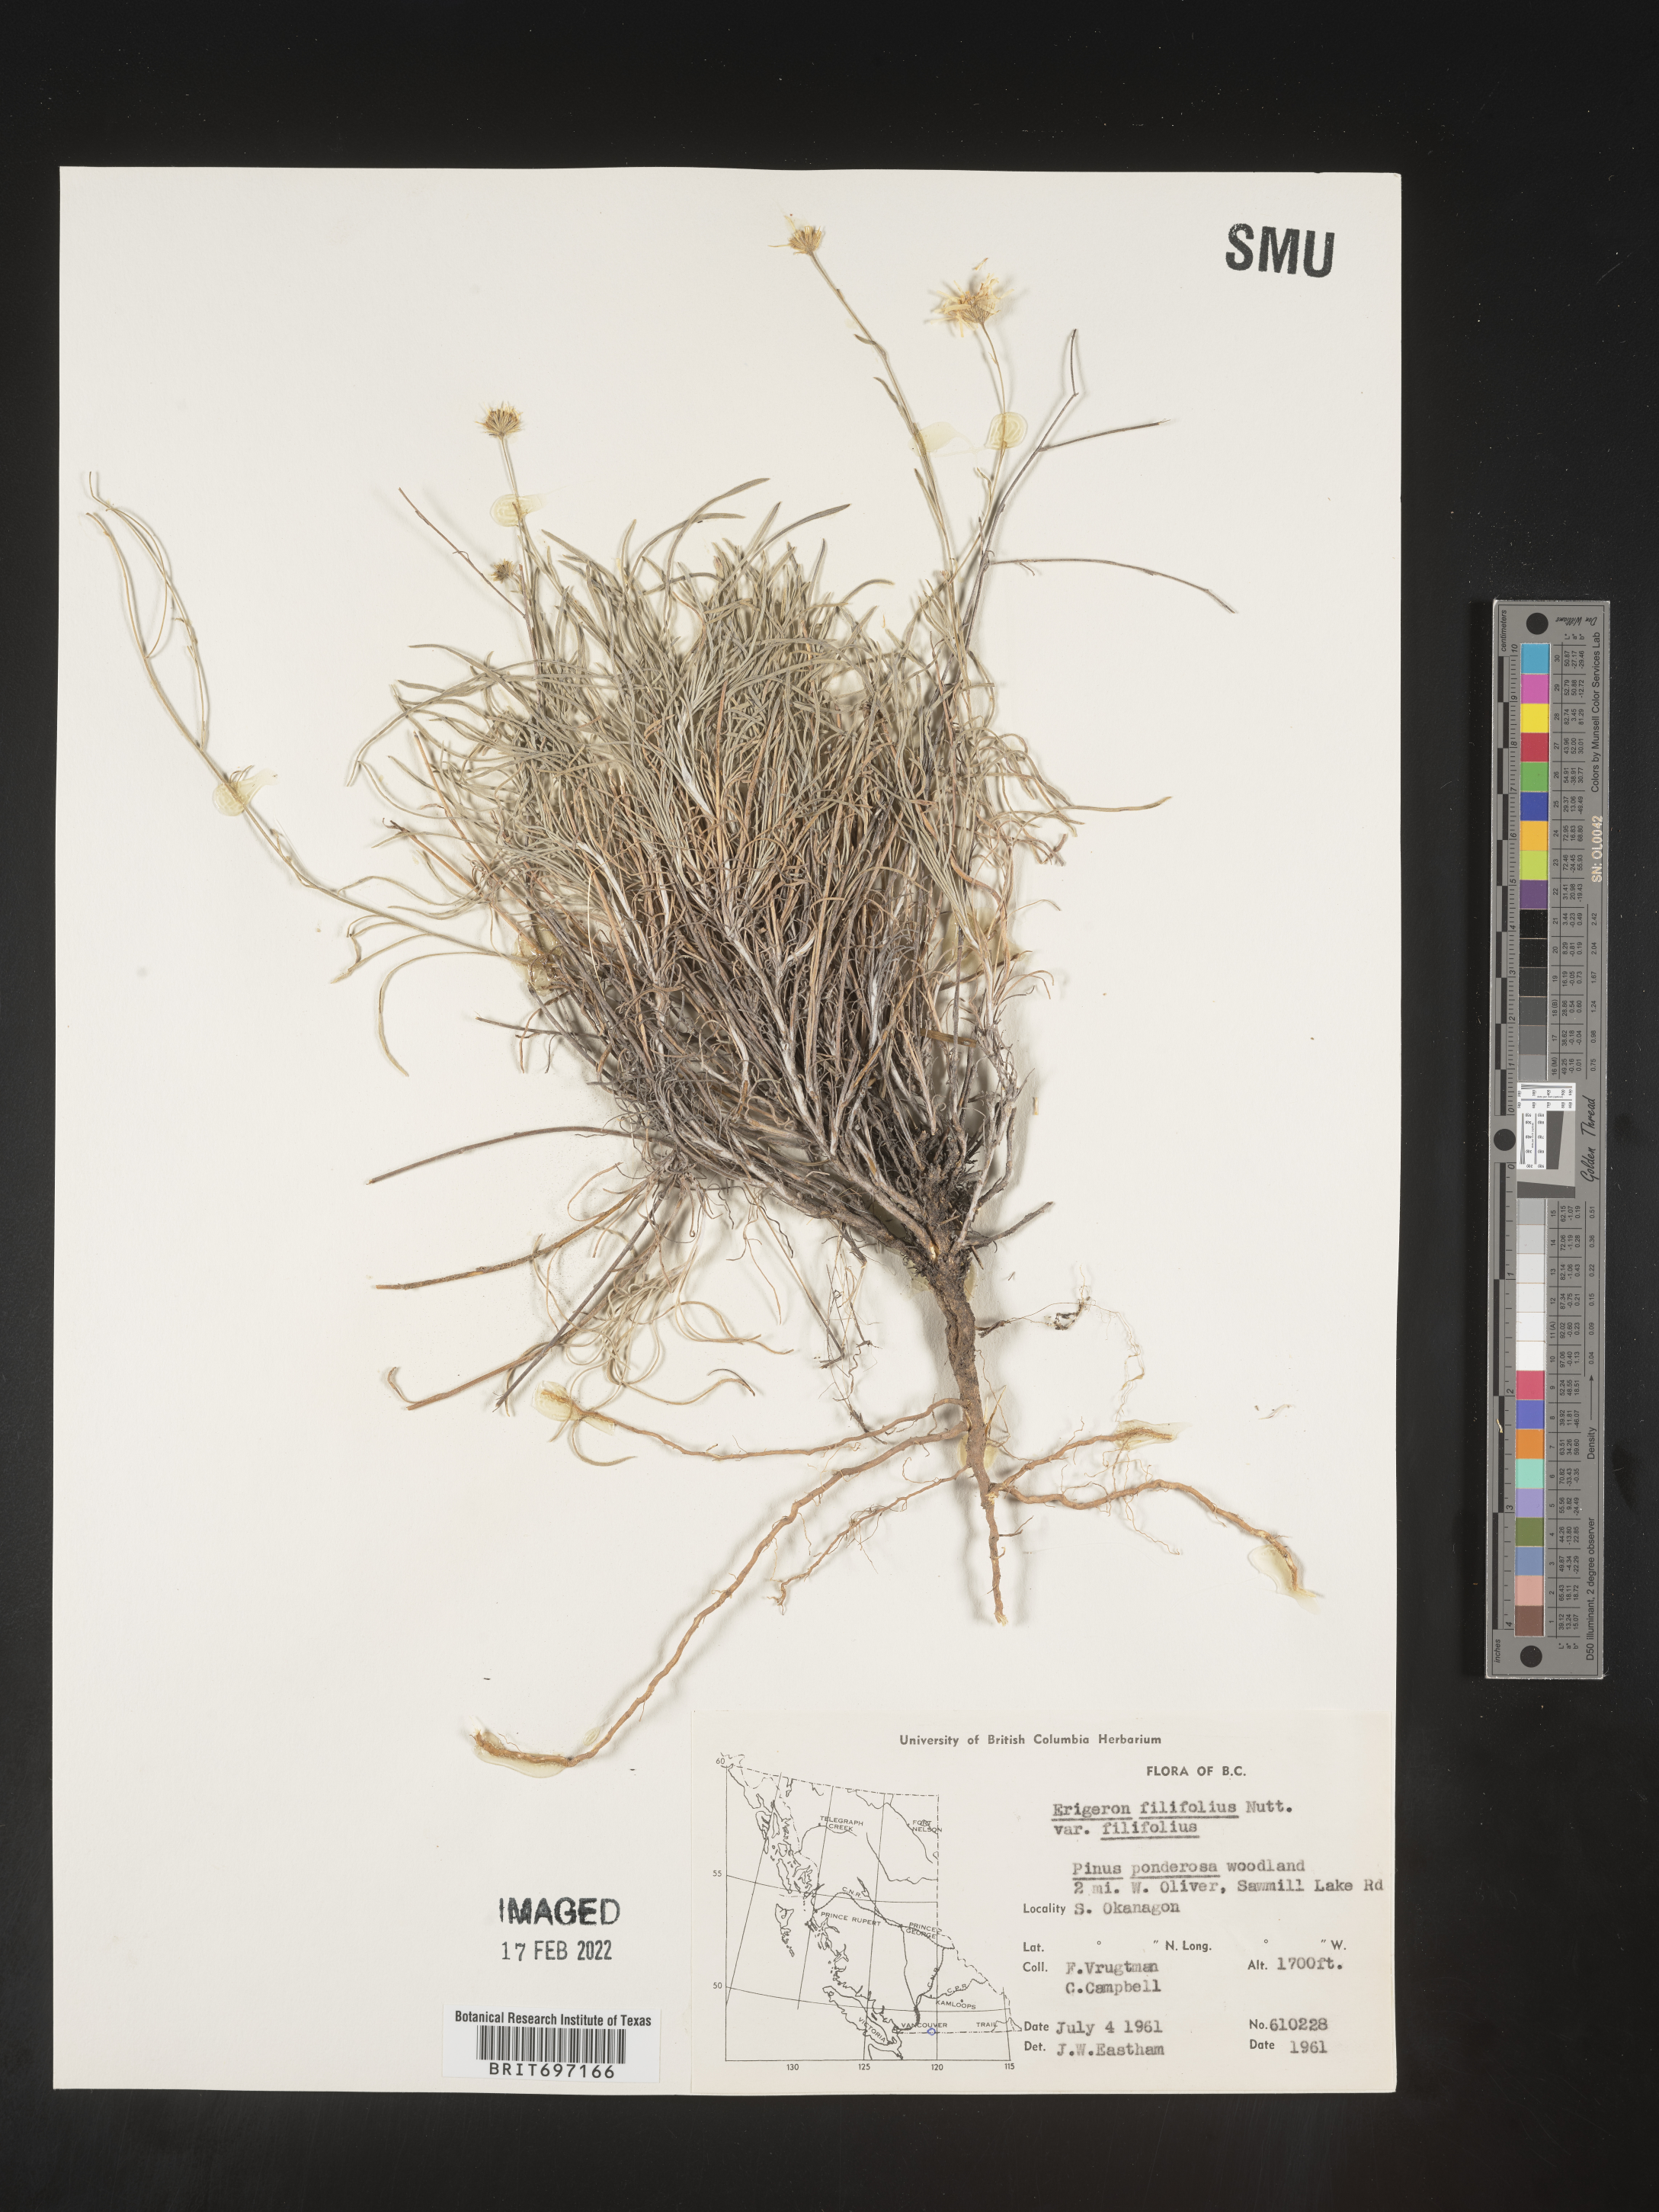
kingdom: Plantae
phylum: Tracheophyta
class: Magnoliopsida
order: Asterales
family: Asteraceae
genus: Erigeron
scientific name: Erigeron filifolius
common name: Threadleaf fleabane
